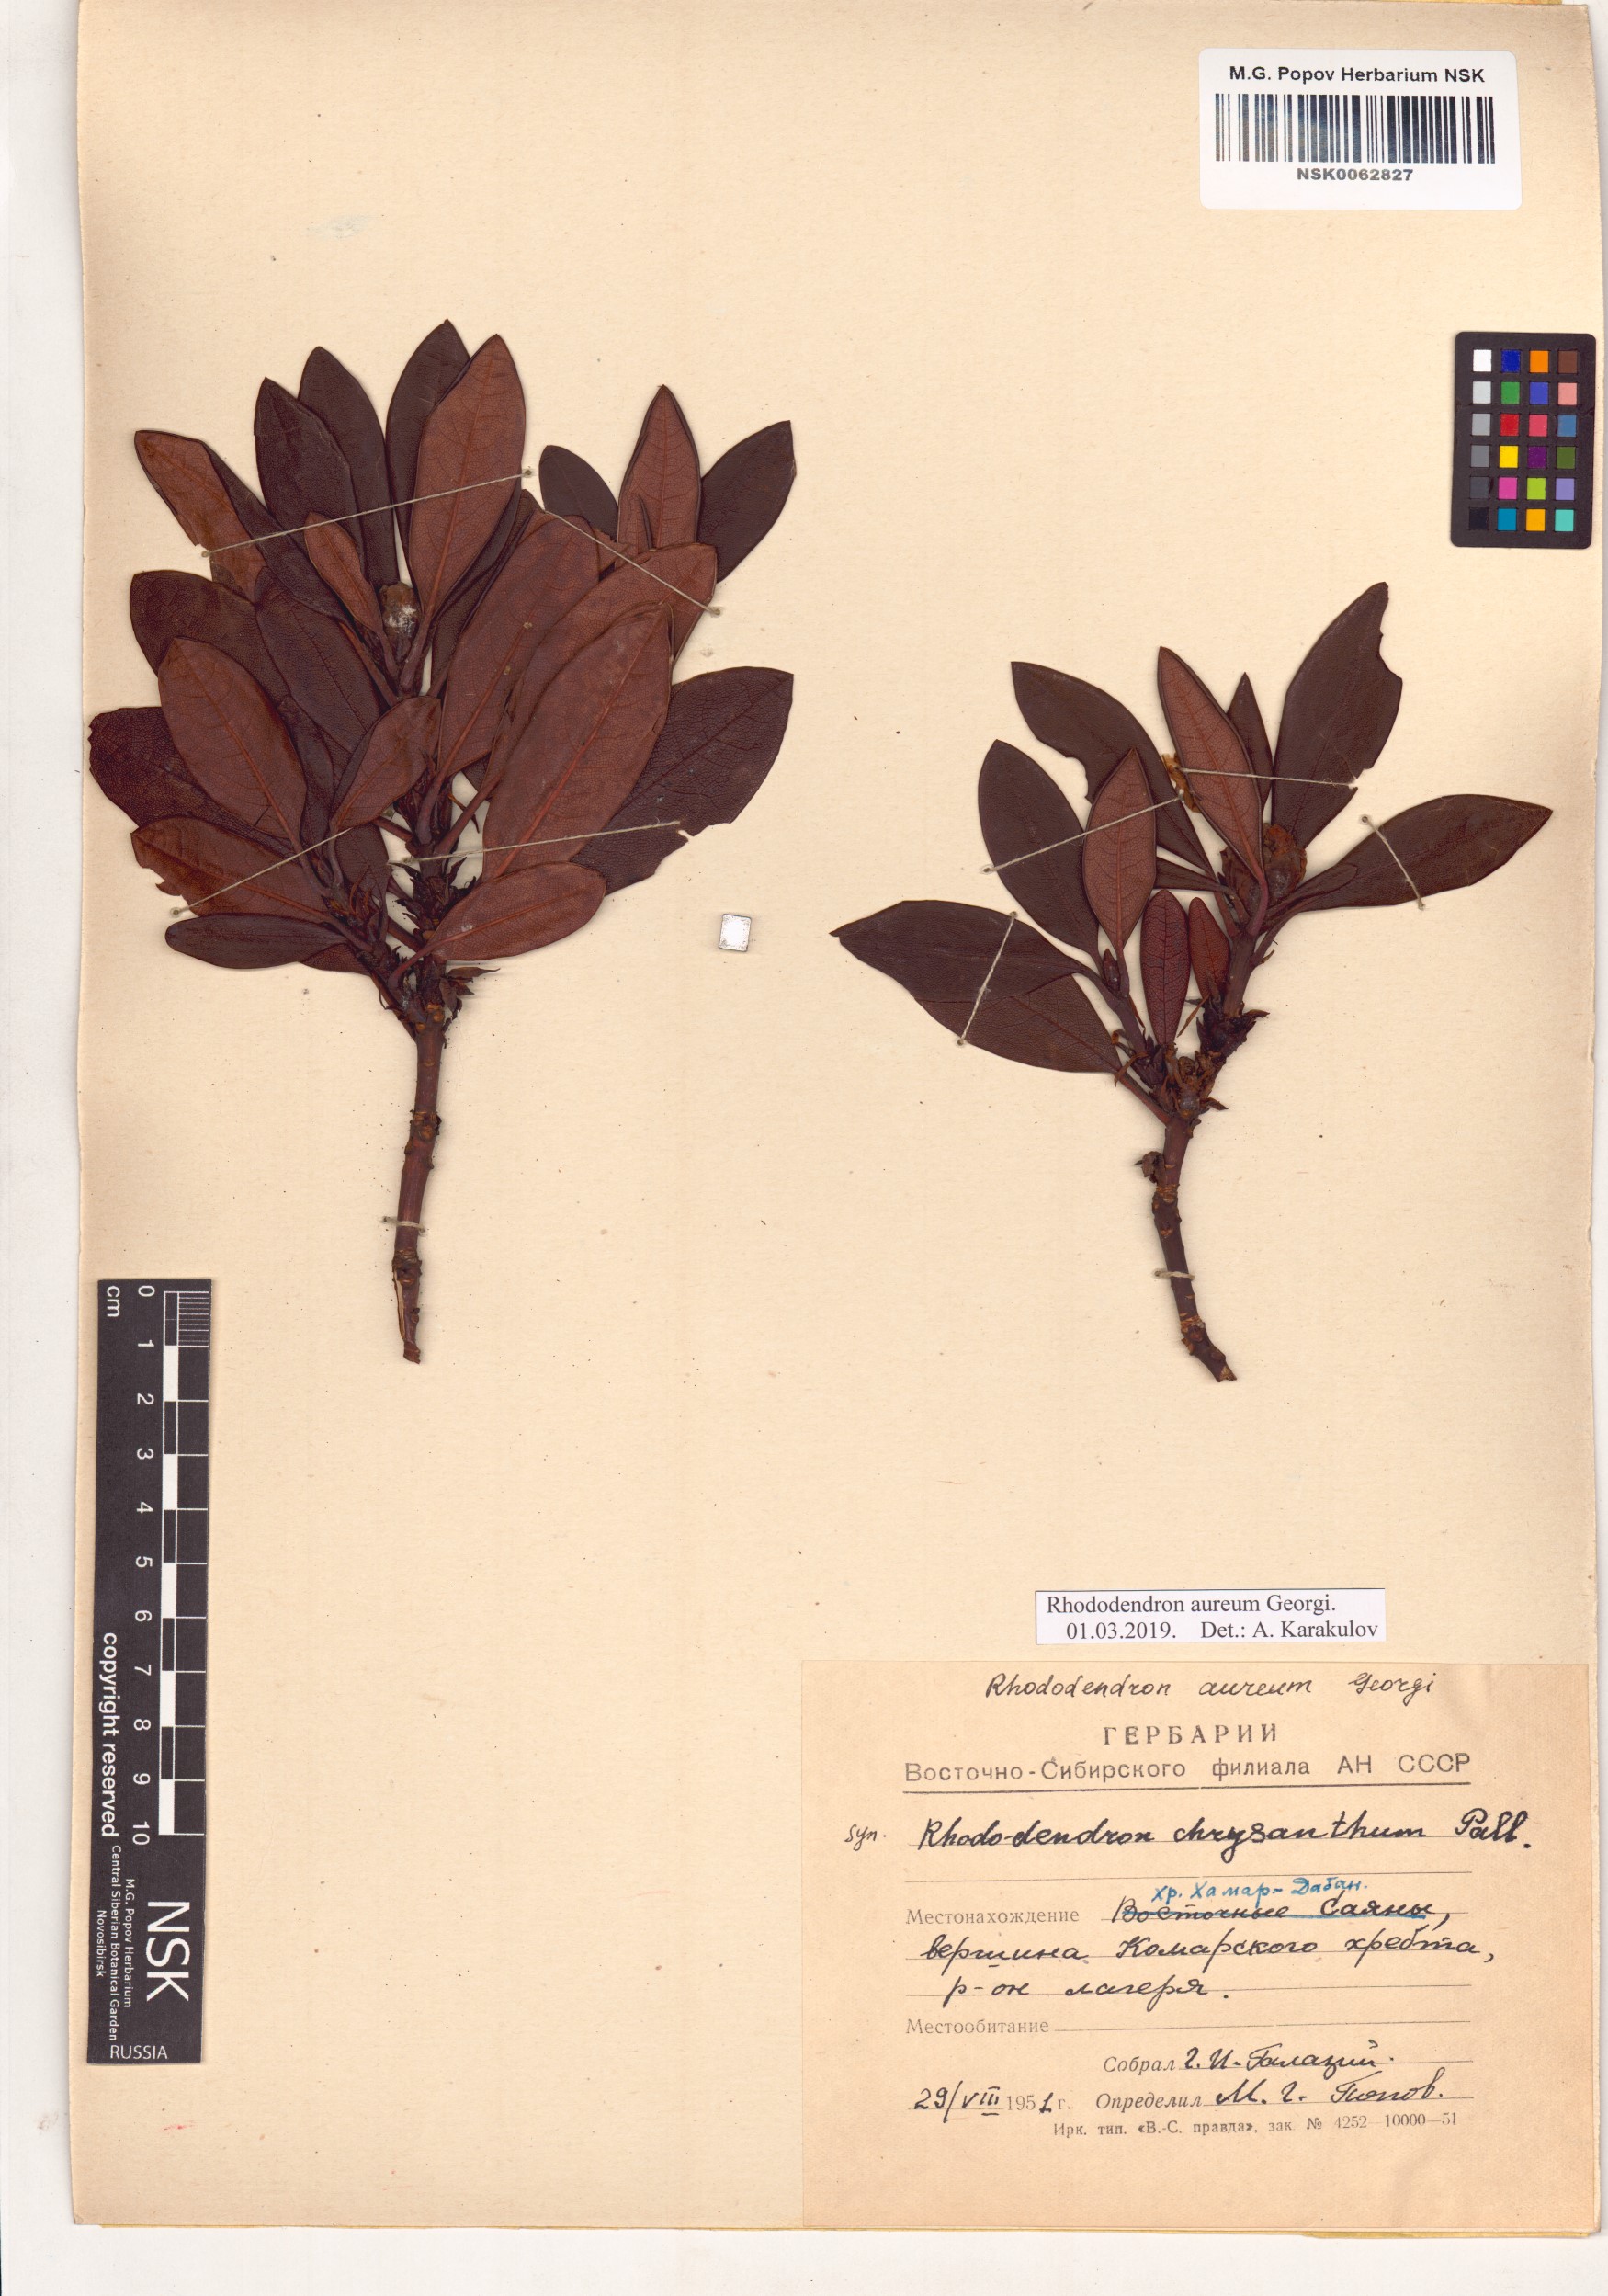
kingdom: Plantae
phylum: Tracheophyta
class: Magnoliopsida
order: Ericales
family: Ericaceae
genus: Rhododendron
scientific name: Rhododendron aureum
